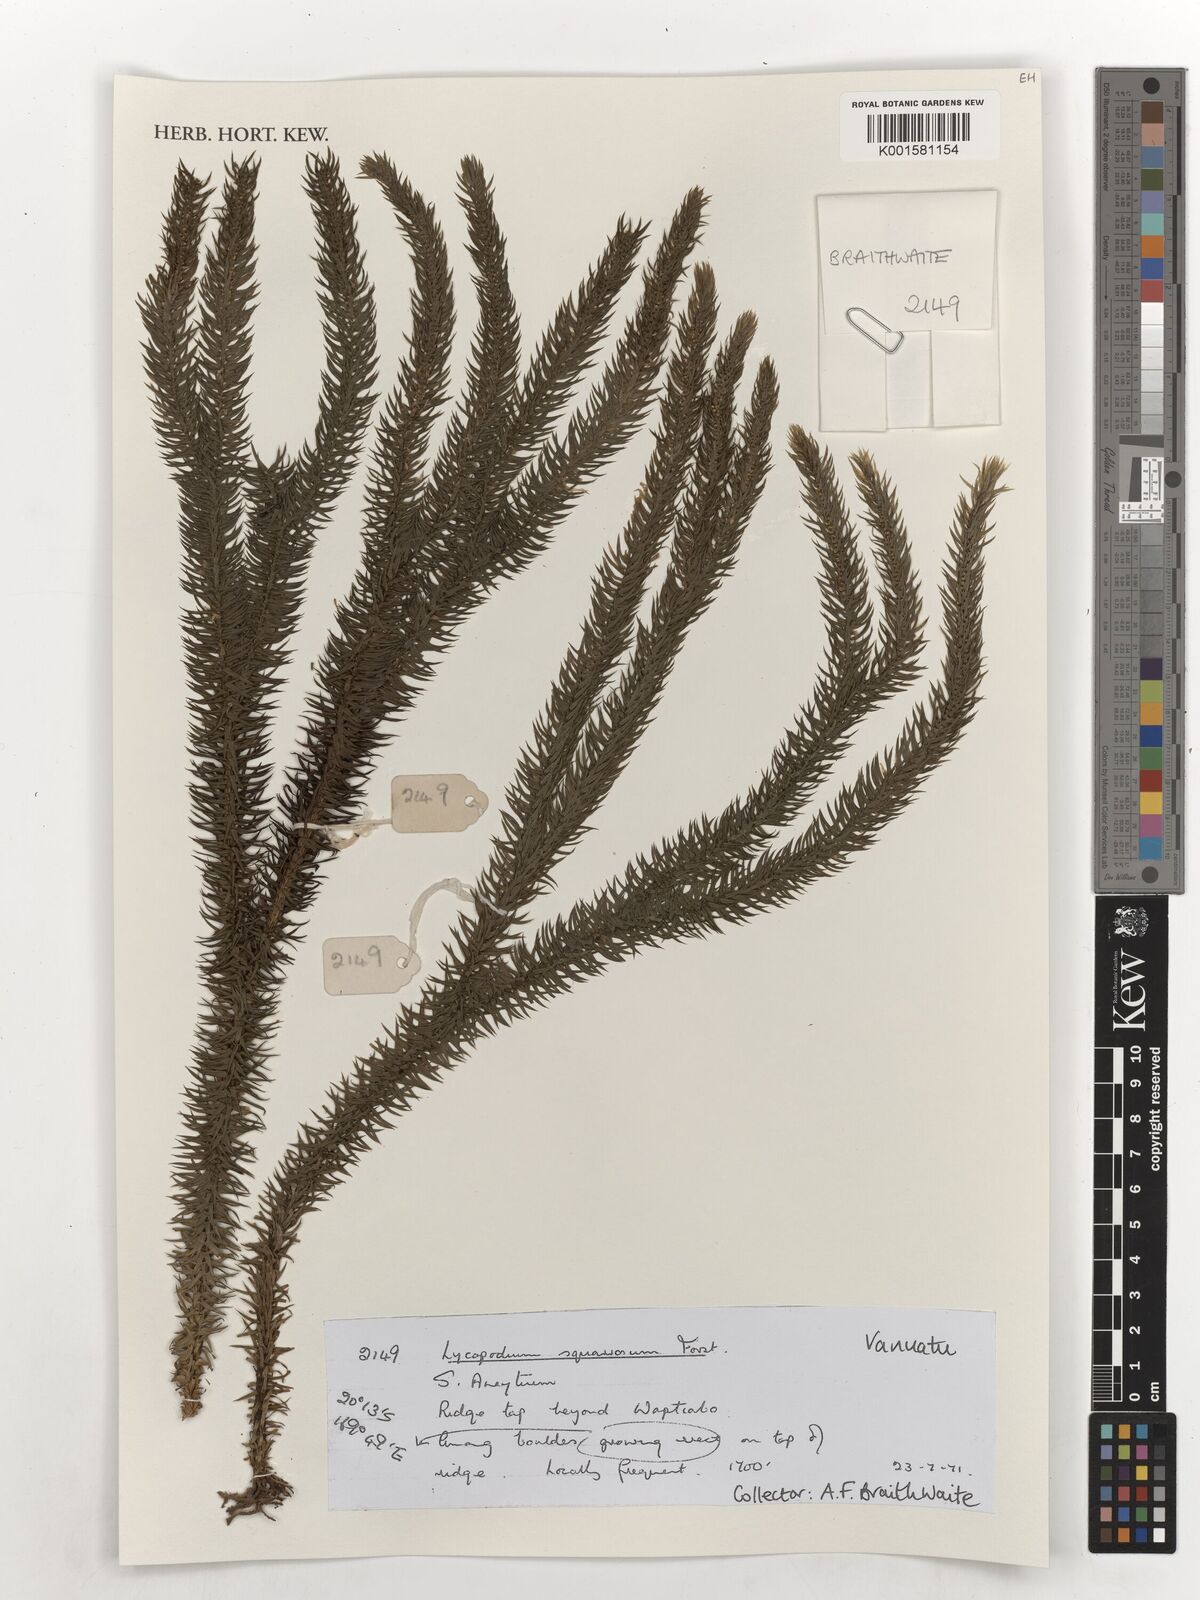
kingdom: Plantae
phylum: Tracheophyta
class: Lycopodiopsida
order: Lycopodiales
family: Lycopodiaceae
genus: Phlegmariurus
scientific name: Phlegmariurus squarrosus
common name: Rock tassel-fern
